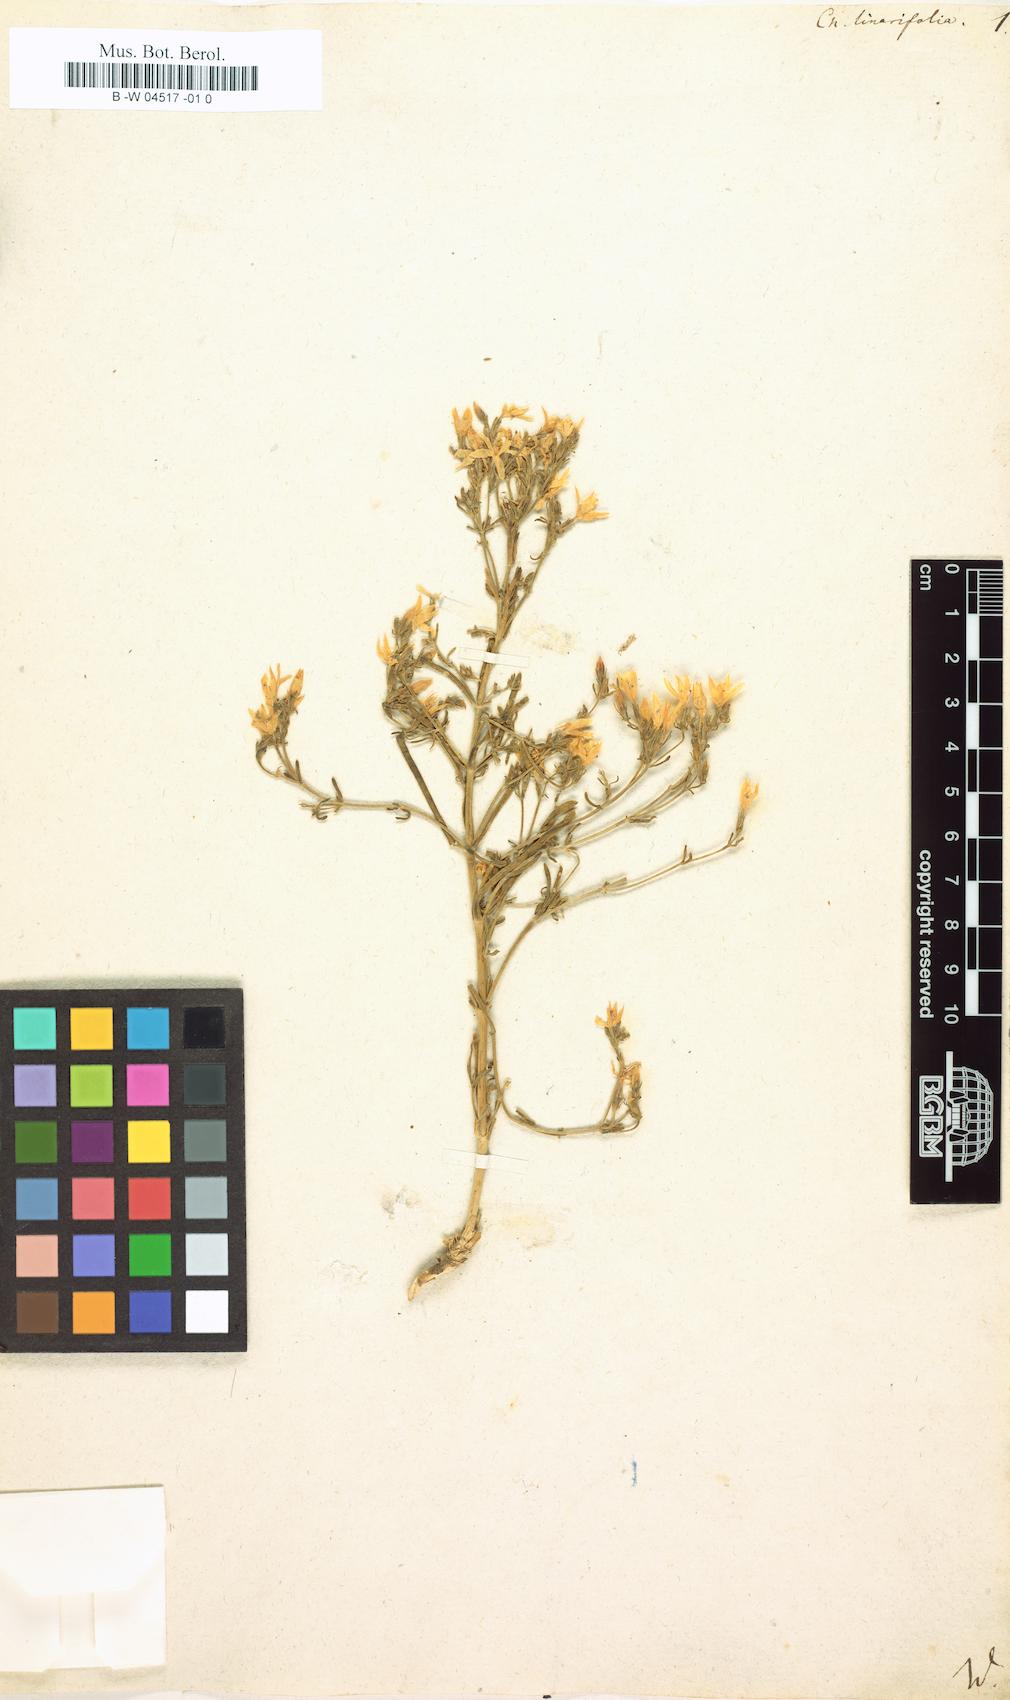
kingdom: Plantae
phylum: Tracheophyta
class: Magnoliopsida
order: Gentianales
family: Gentianaceae
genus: Centaurium
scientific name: Centaurium quadrifolium
